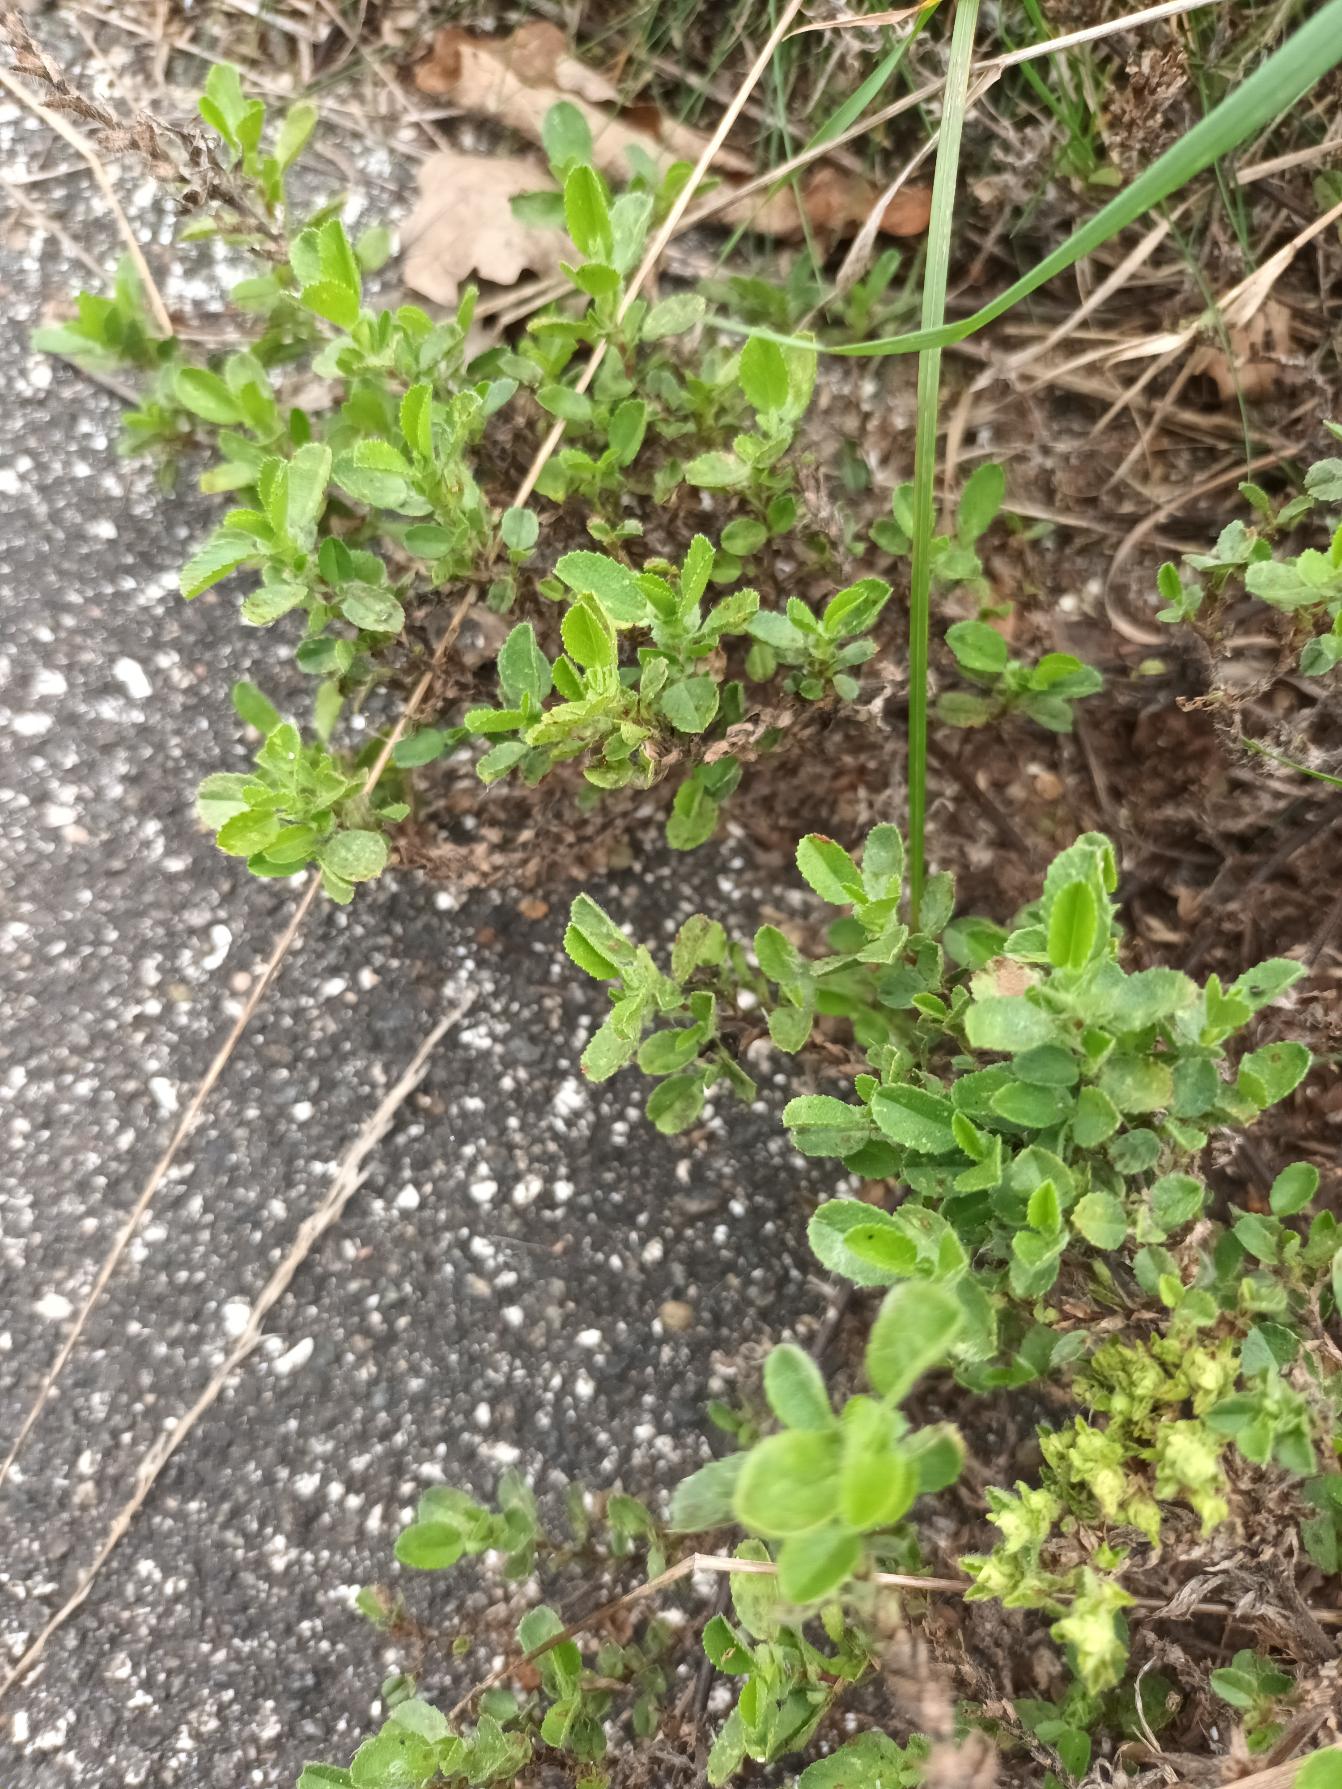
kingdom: Plantae
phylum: Tracheophyta
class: Magnoliopsida
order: Fabales
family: Fabaceae
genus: Ononis
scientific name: Ononis spinosa
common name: Mark-krageklo
